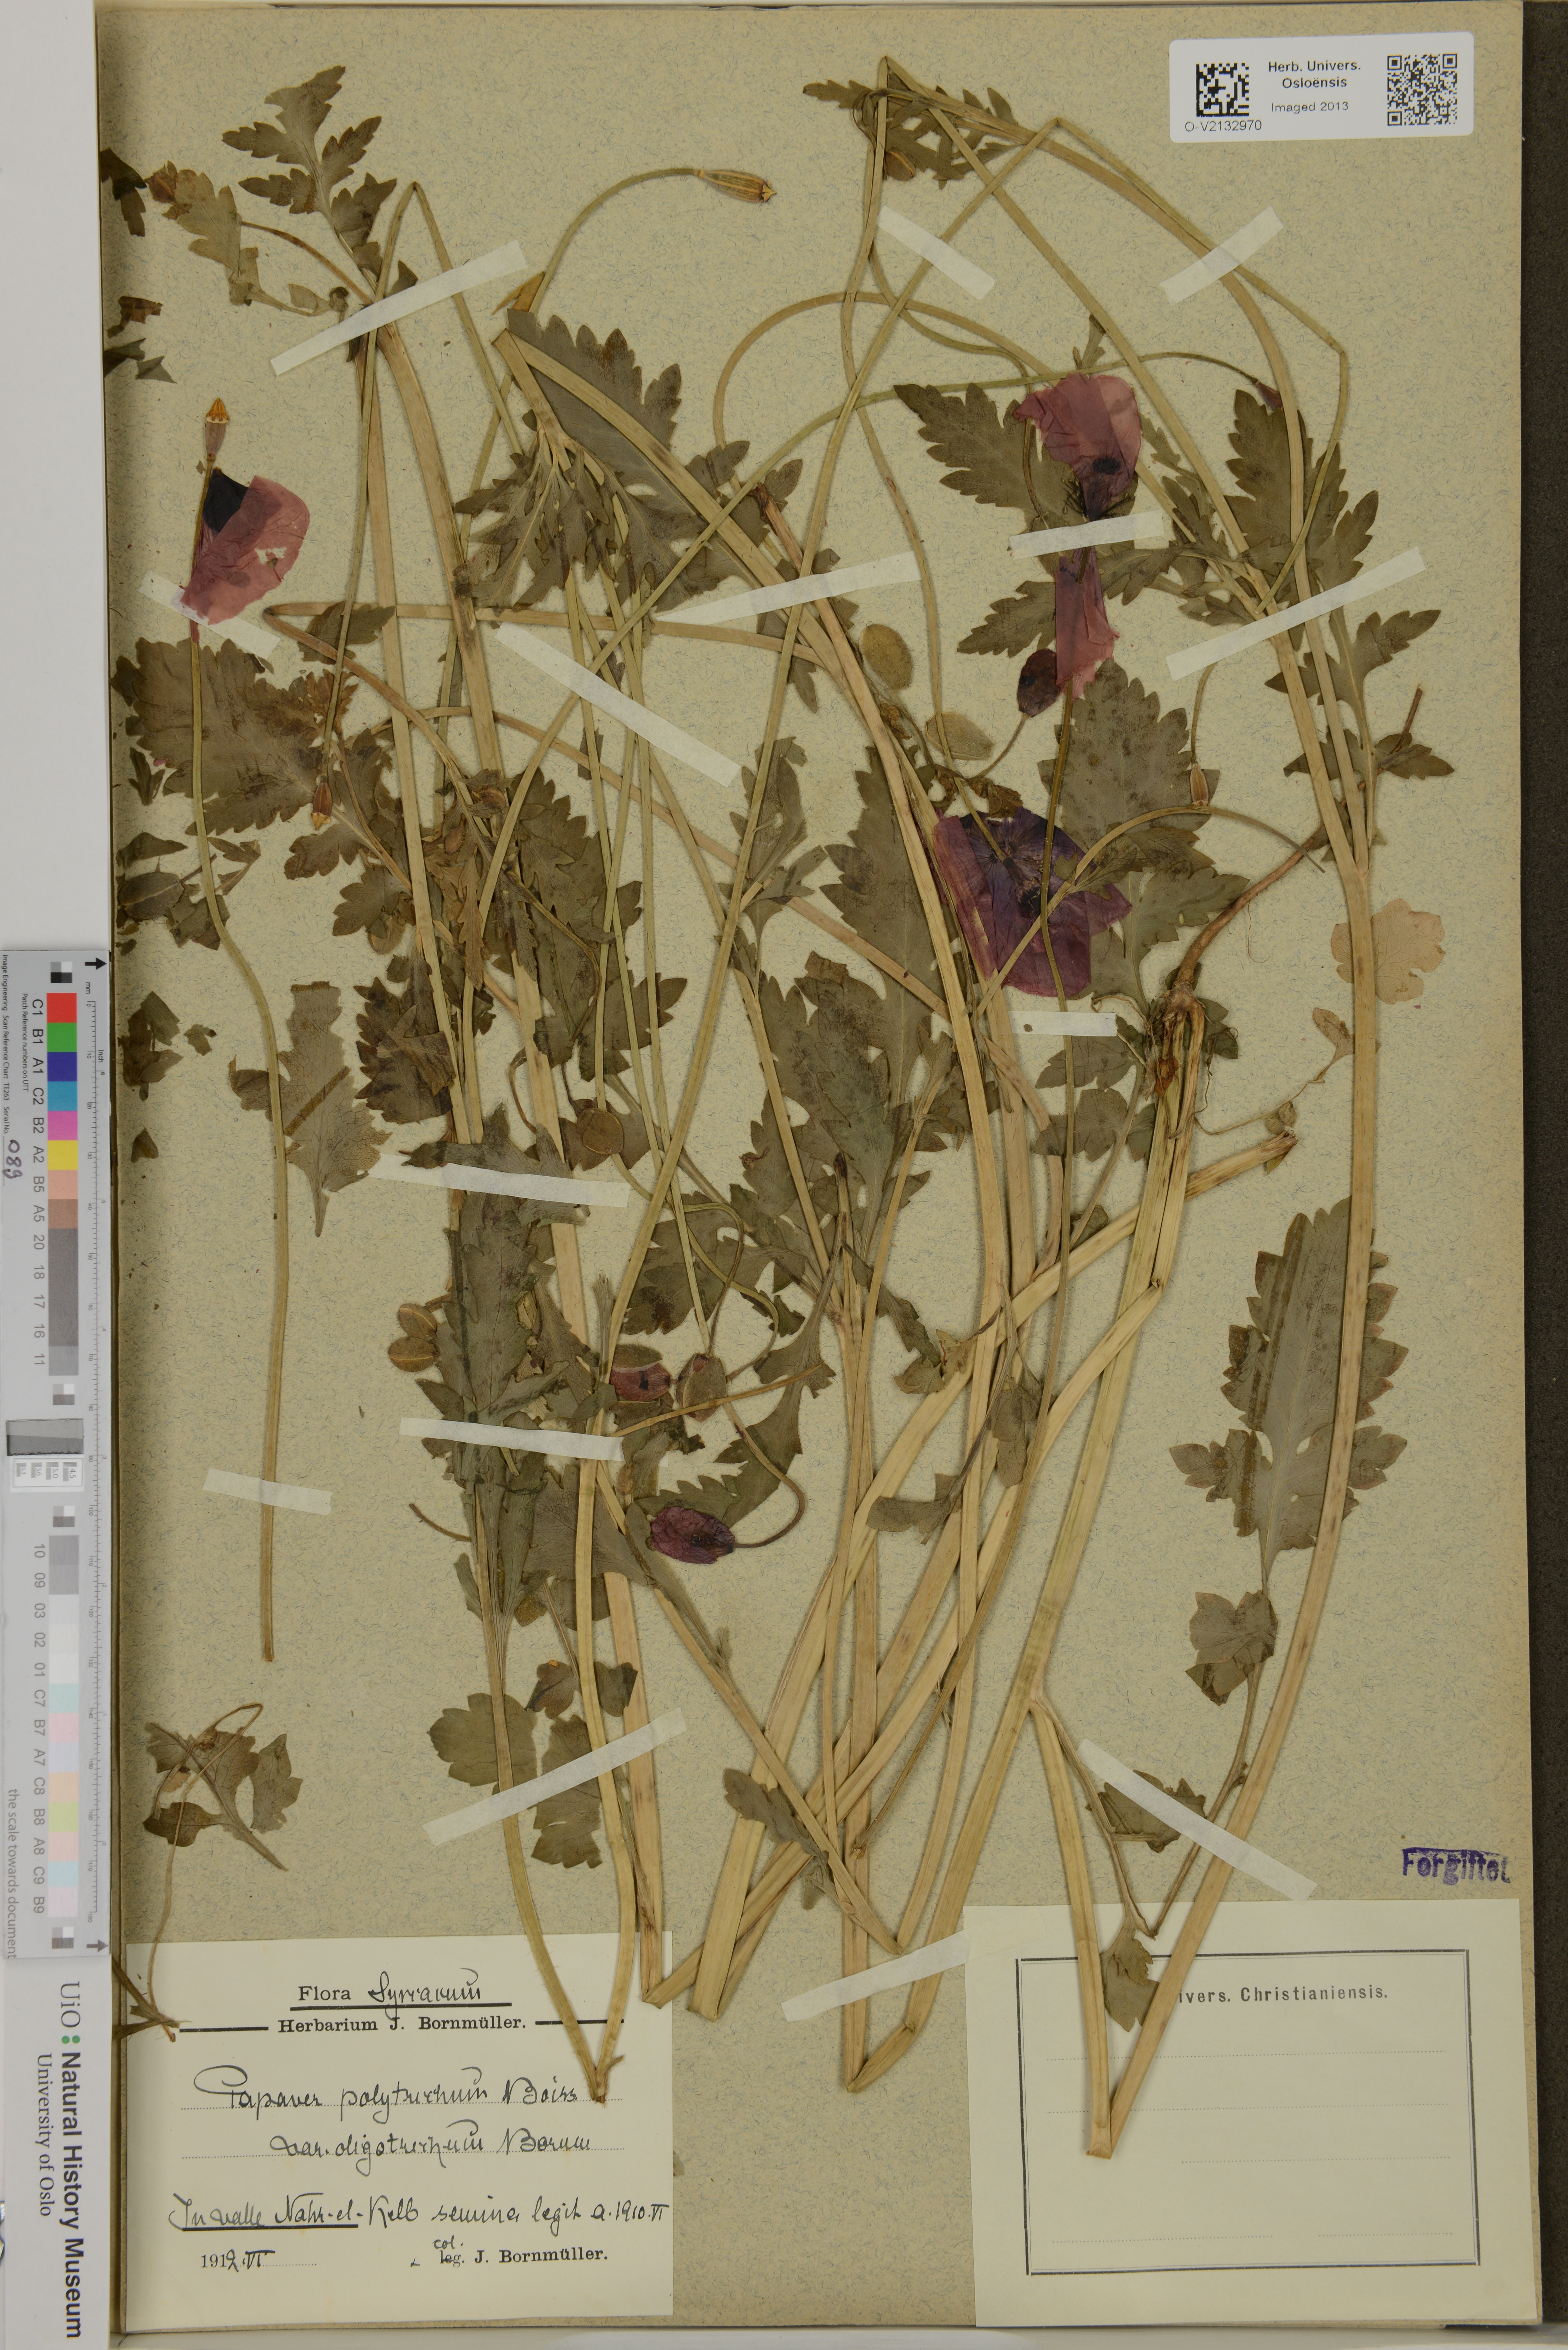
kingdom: Plantae
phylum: Tracheophyta
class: Magnoliopsida
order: Ranunculales
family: Papaveraceae
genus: Papaver
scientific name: Papaver rhoeas
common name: Corn poppy
